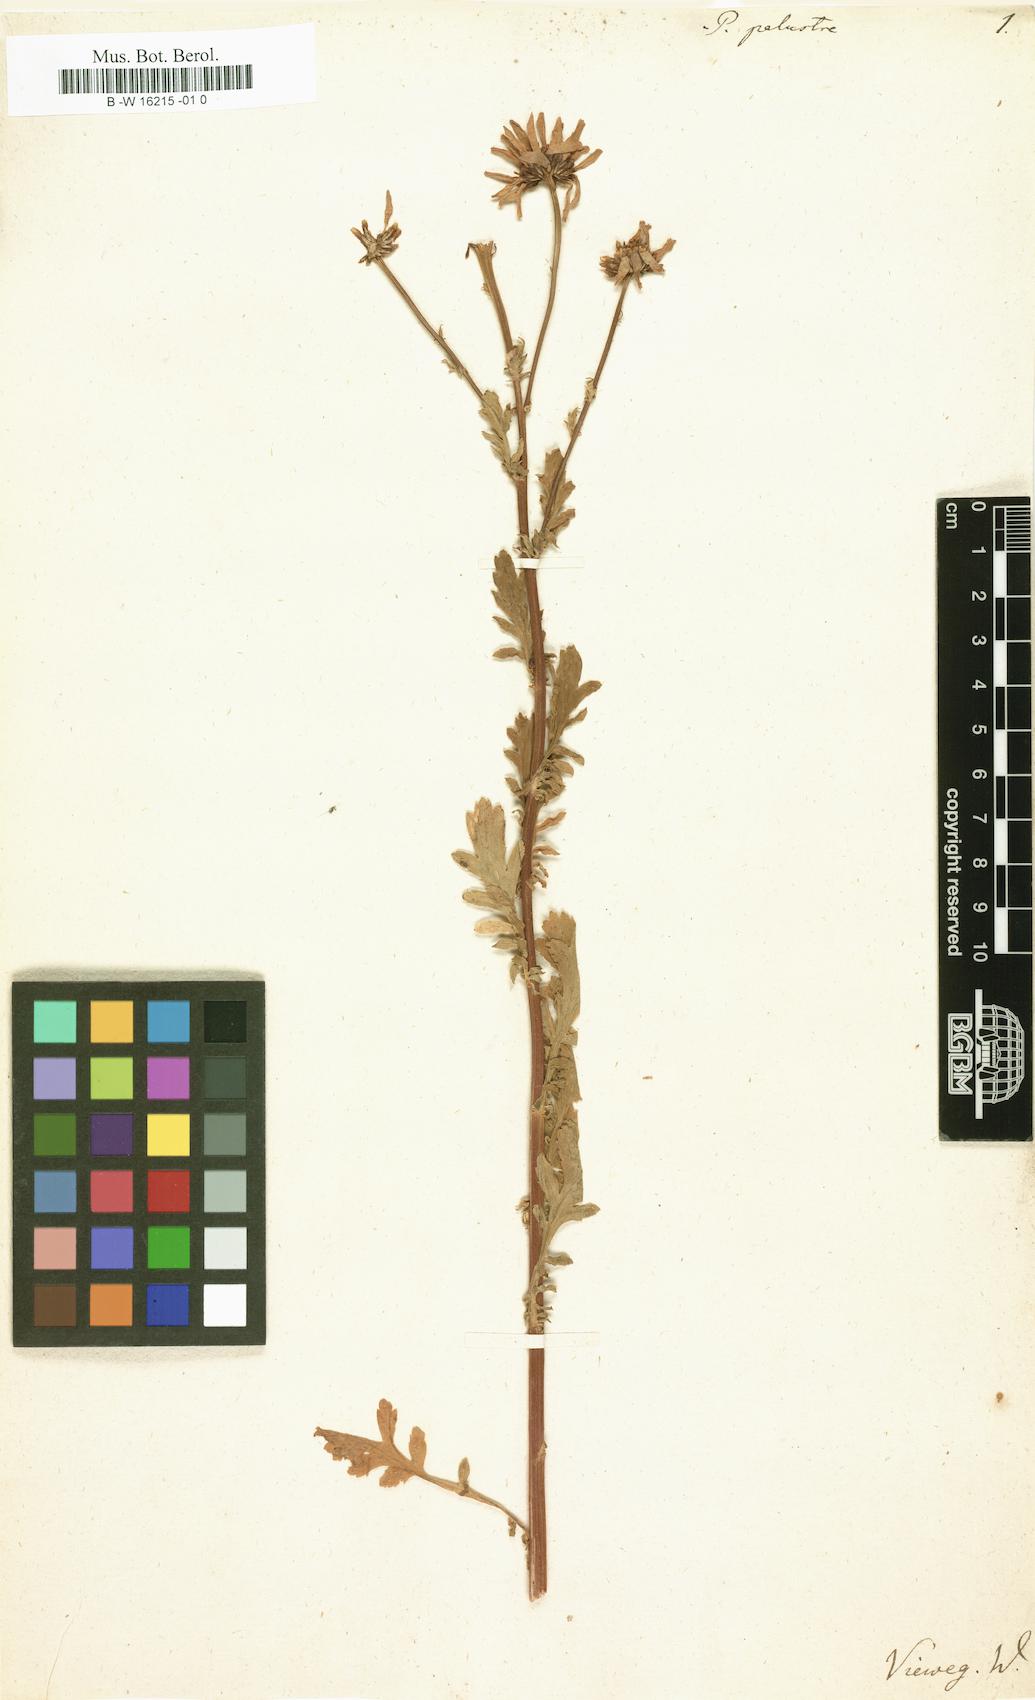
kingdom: Plantae
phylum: Tracheophyta
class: Magnoliopsida
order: Asterales
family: Asteraceae
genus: Tanacetum
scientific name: Tanacetum punctatum
